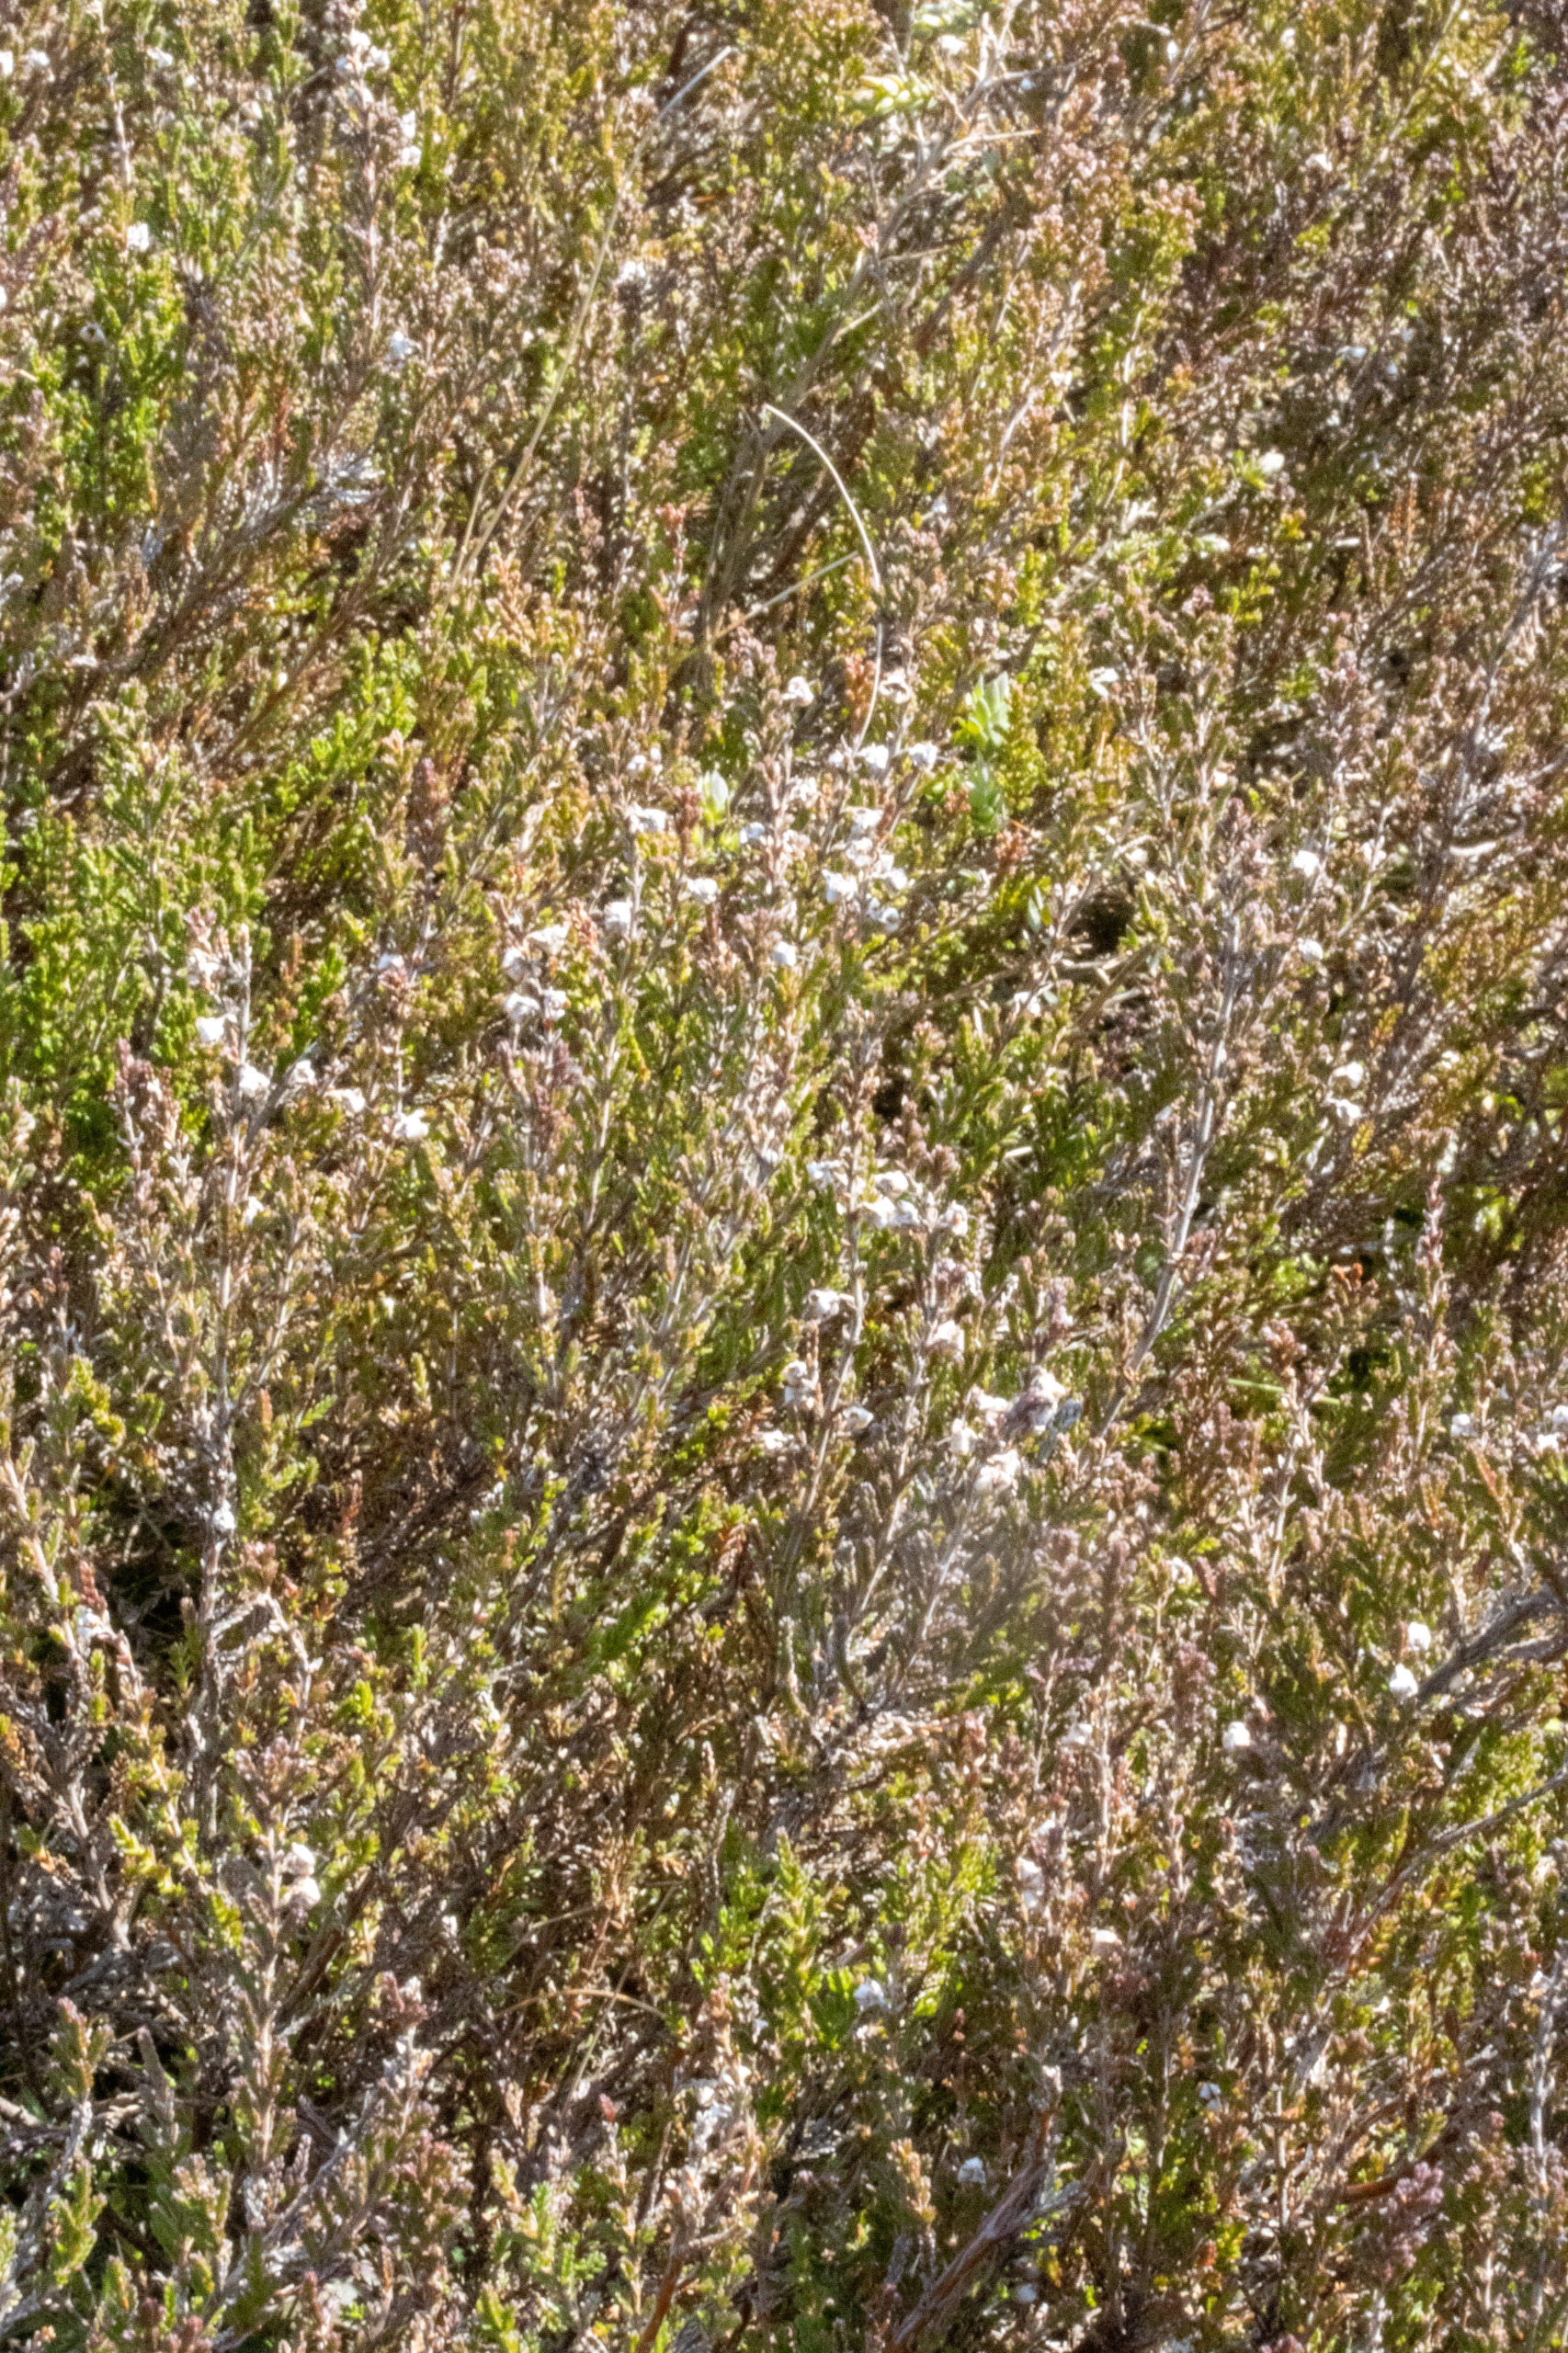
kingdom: Plantae
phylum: Tracheophyta
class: Magnoliopsida
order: Ericales
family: Ericaceae
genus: Calluna
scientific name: Calluna vulgaris
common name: Hedelyng
